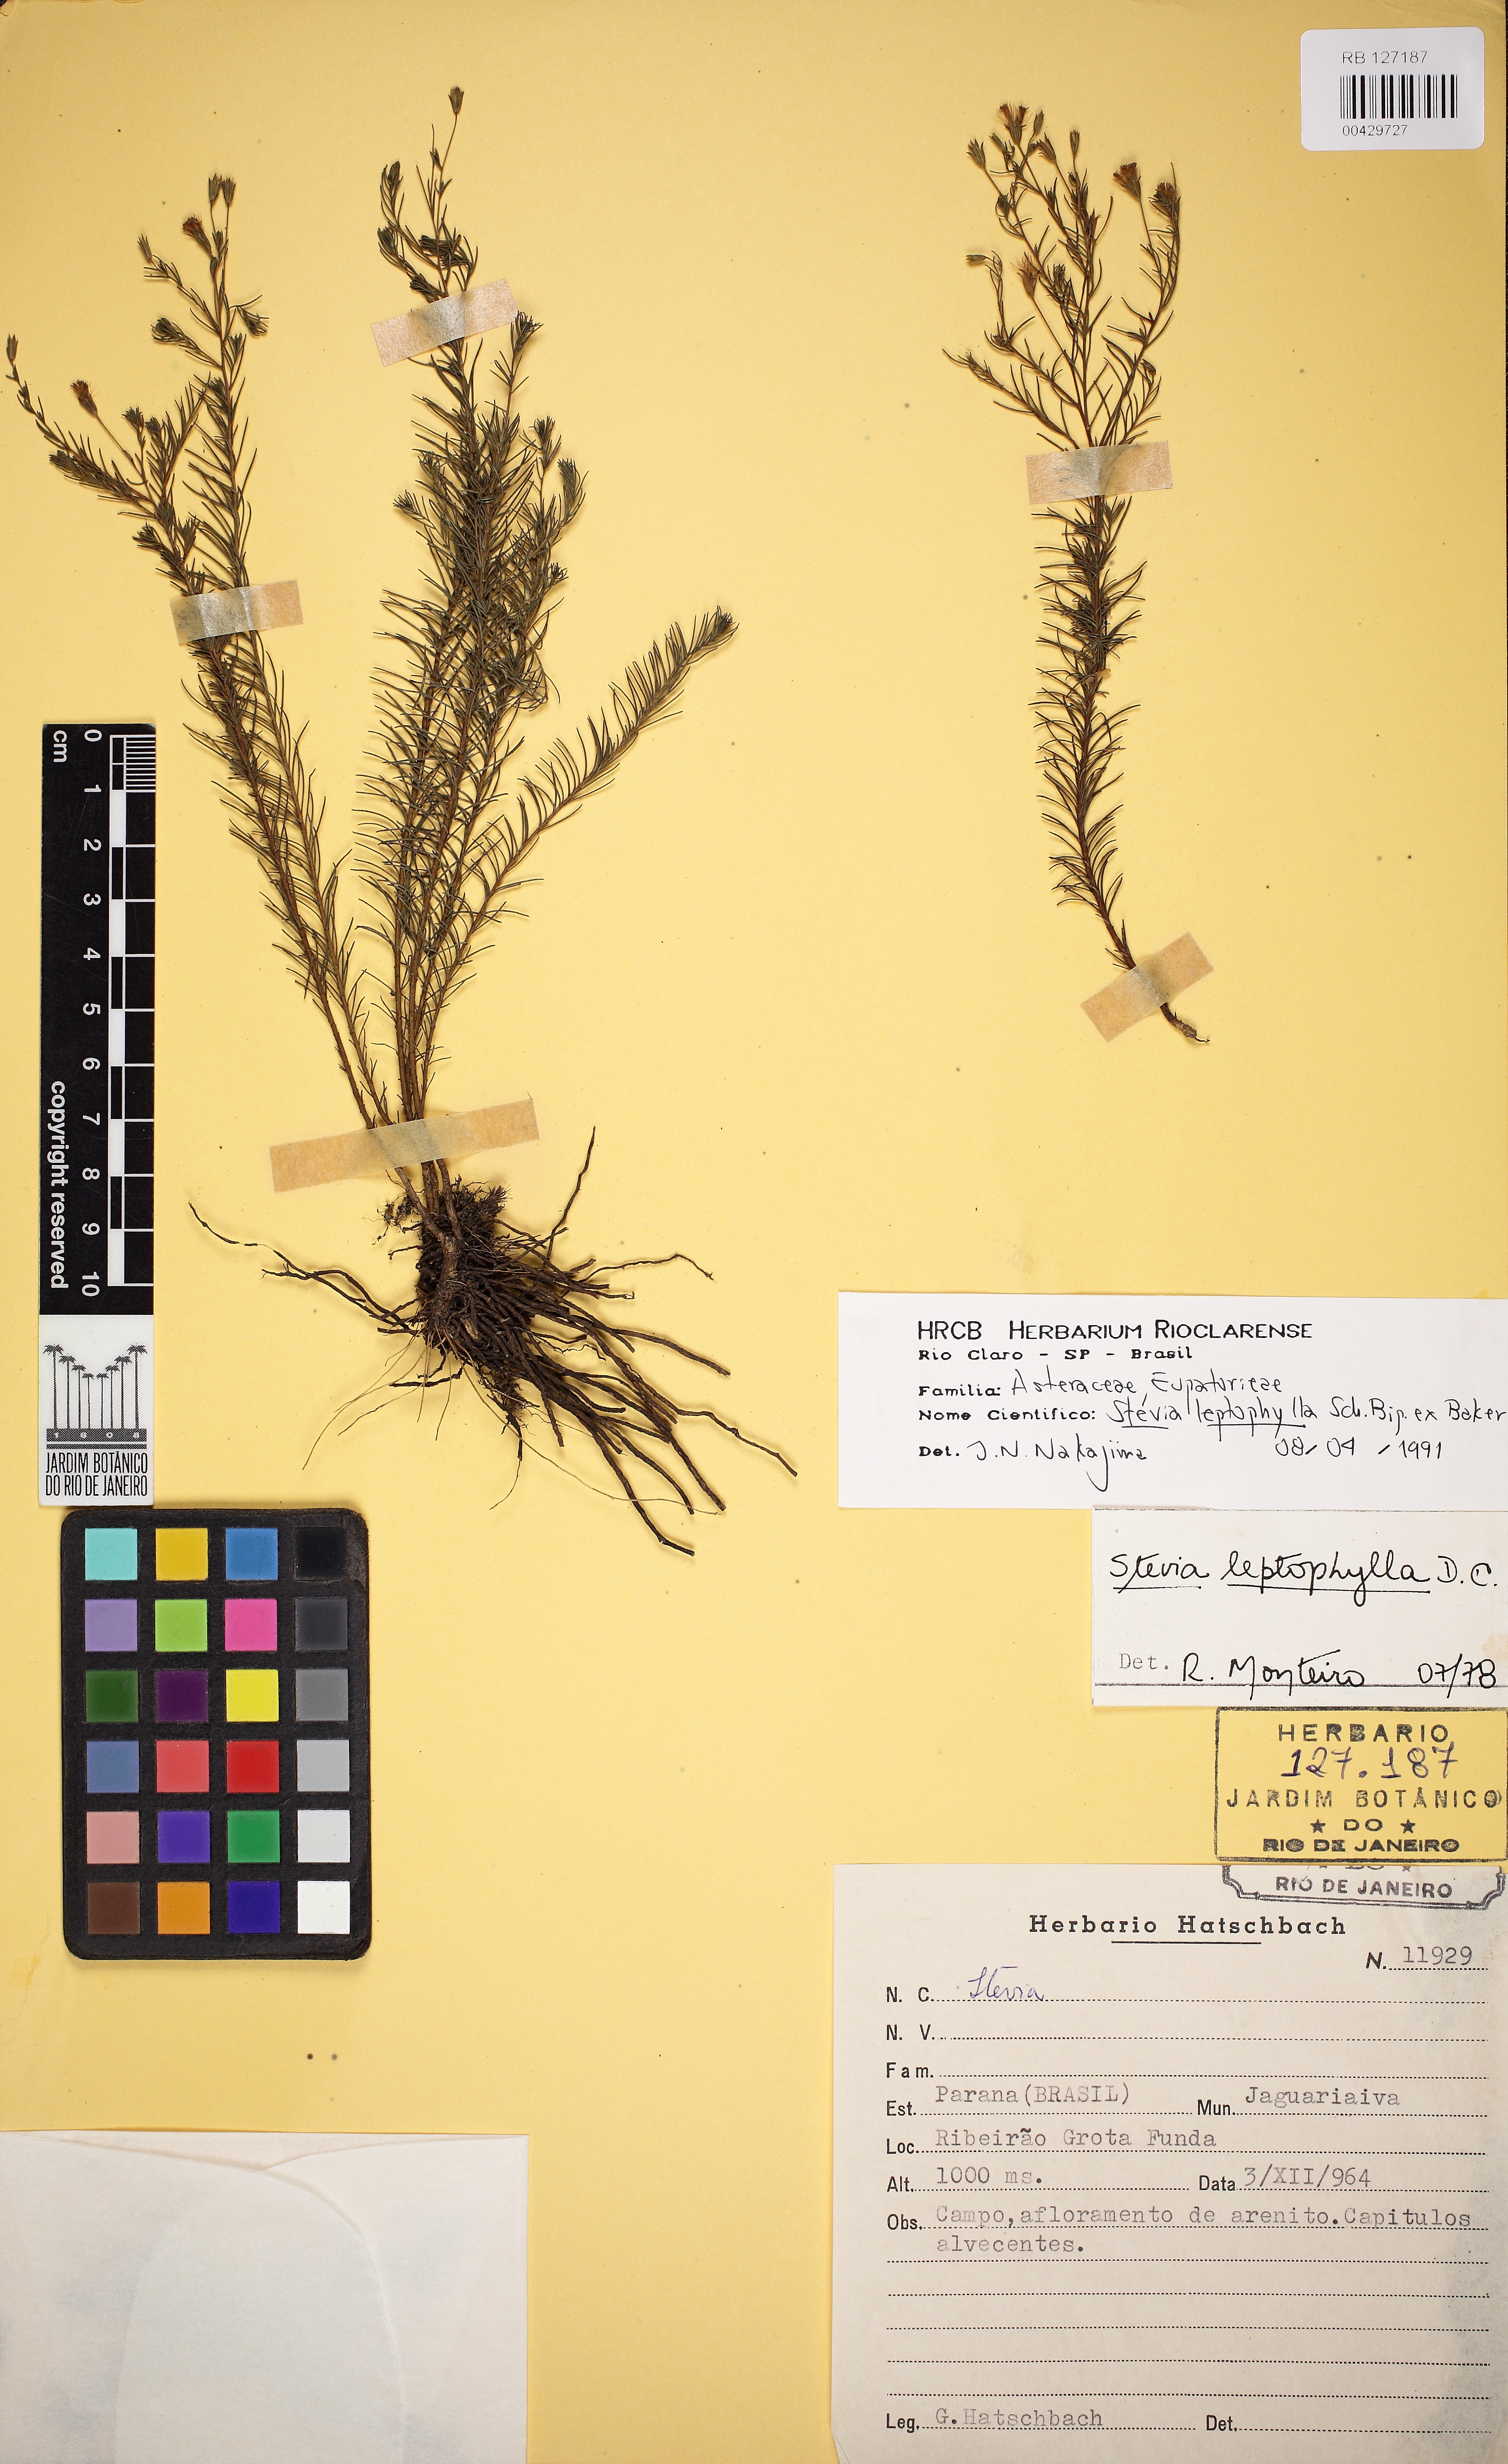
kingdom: Plantae
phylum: Tracheophyta
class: Magnoliopsida
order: Asterales
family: Asteraceae
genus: Stevia
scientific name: Stevia leptophylla
